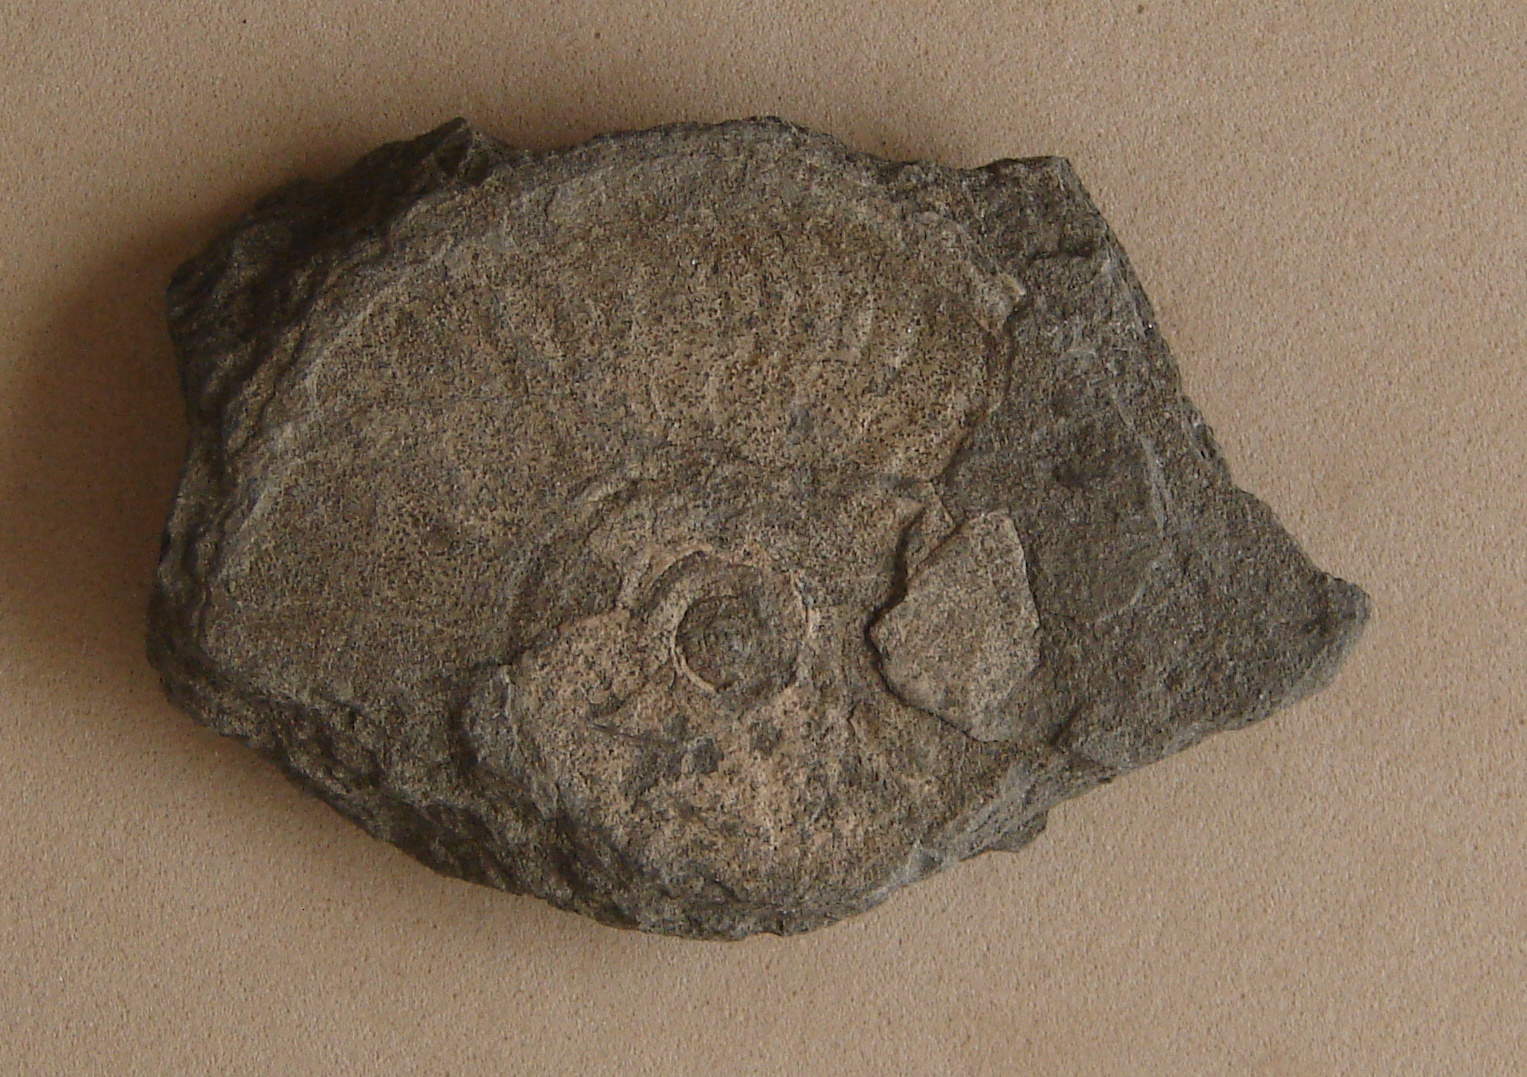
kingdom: Animalia
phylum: Mollusca
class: Cephalopoda
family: Hildoceratidae
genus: Hildaites
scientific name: Hildaites levisoni
